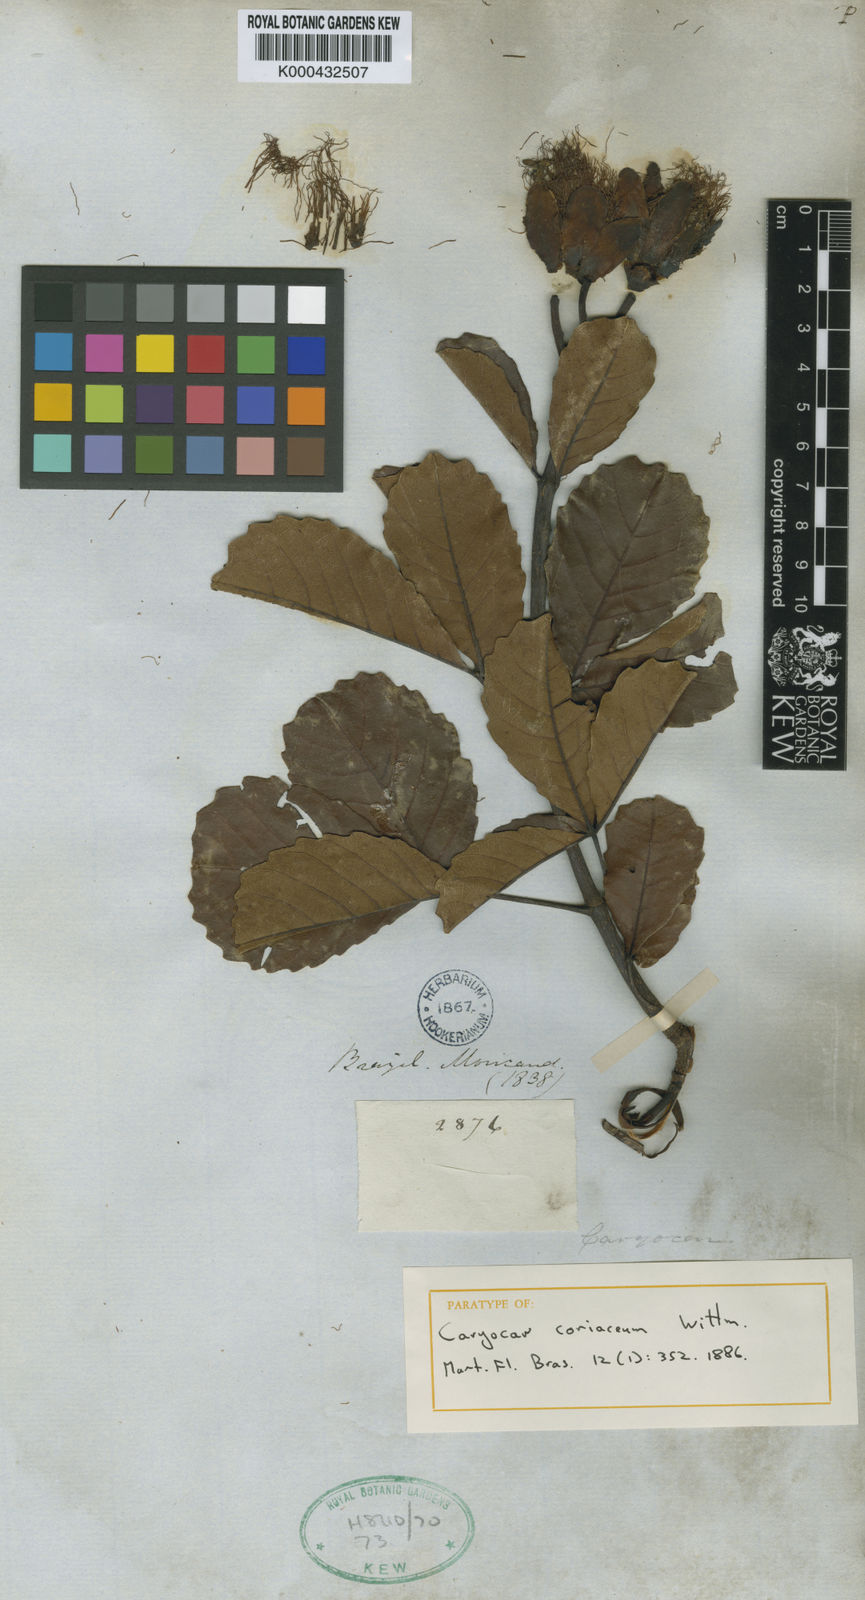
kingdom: Plantae
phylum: Tracheophyta
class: Magnoliopsida
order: Malpighiales
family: Caryocaraceae
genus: Caryocar
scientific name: Caryocar coriaceum
